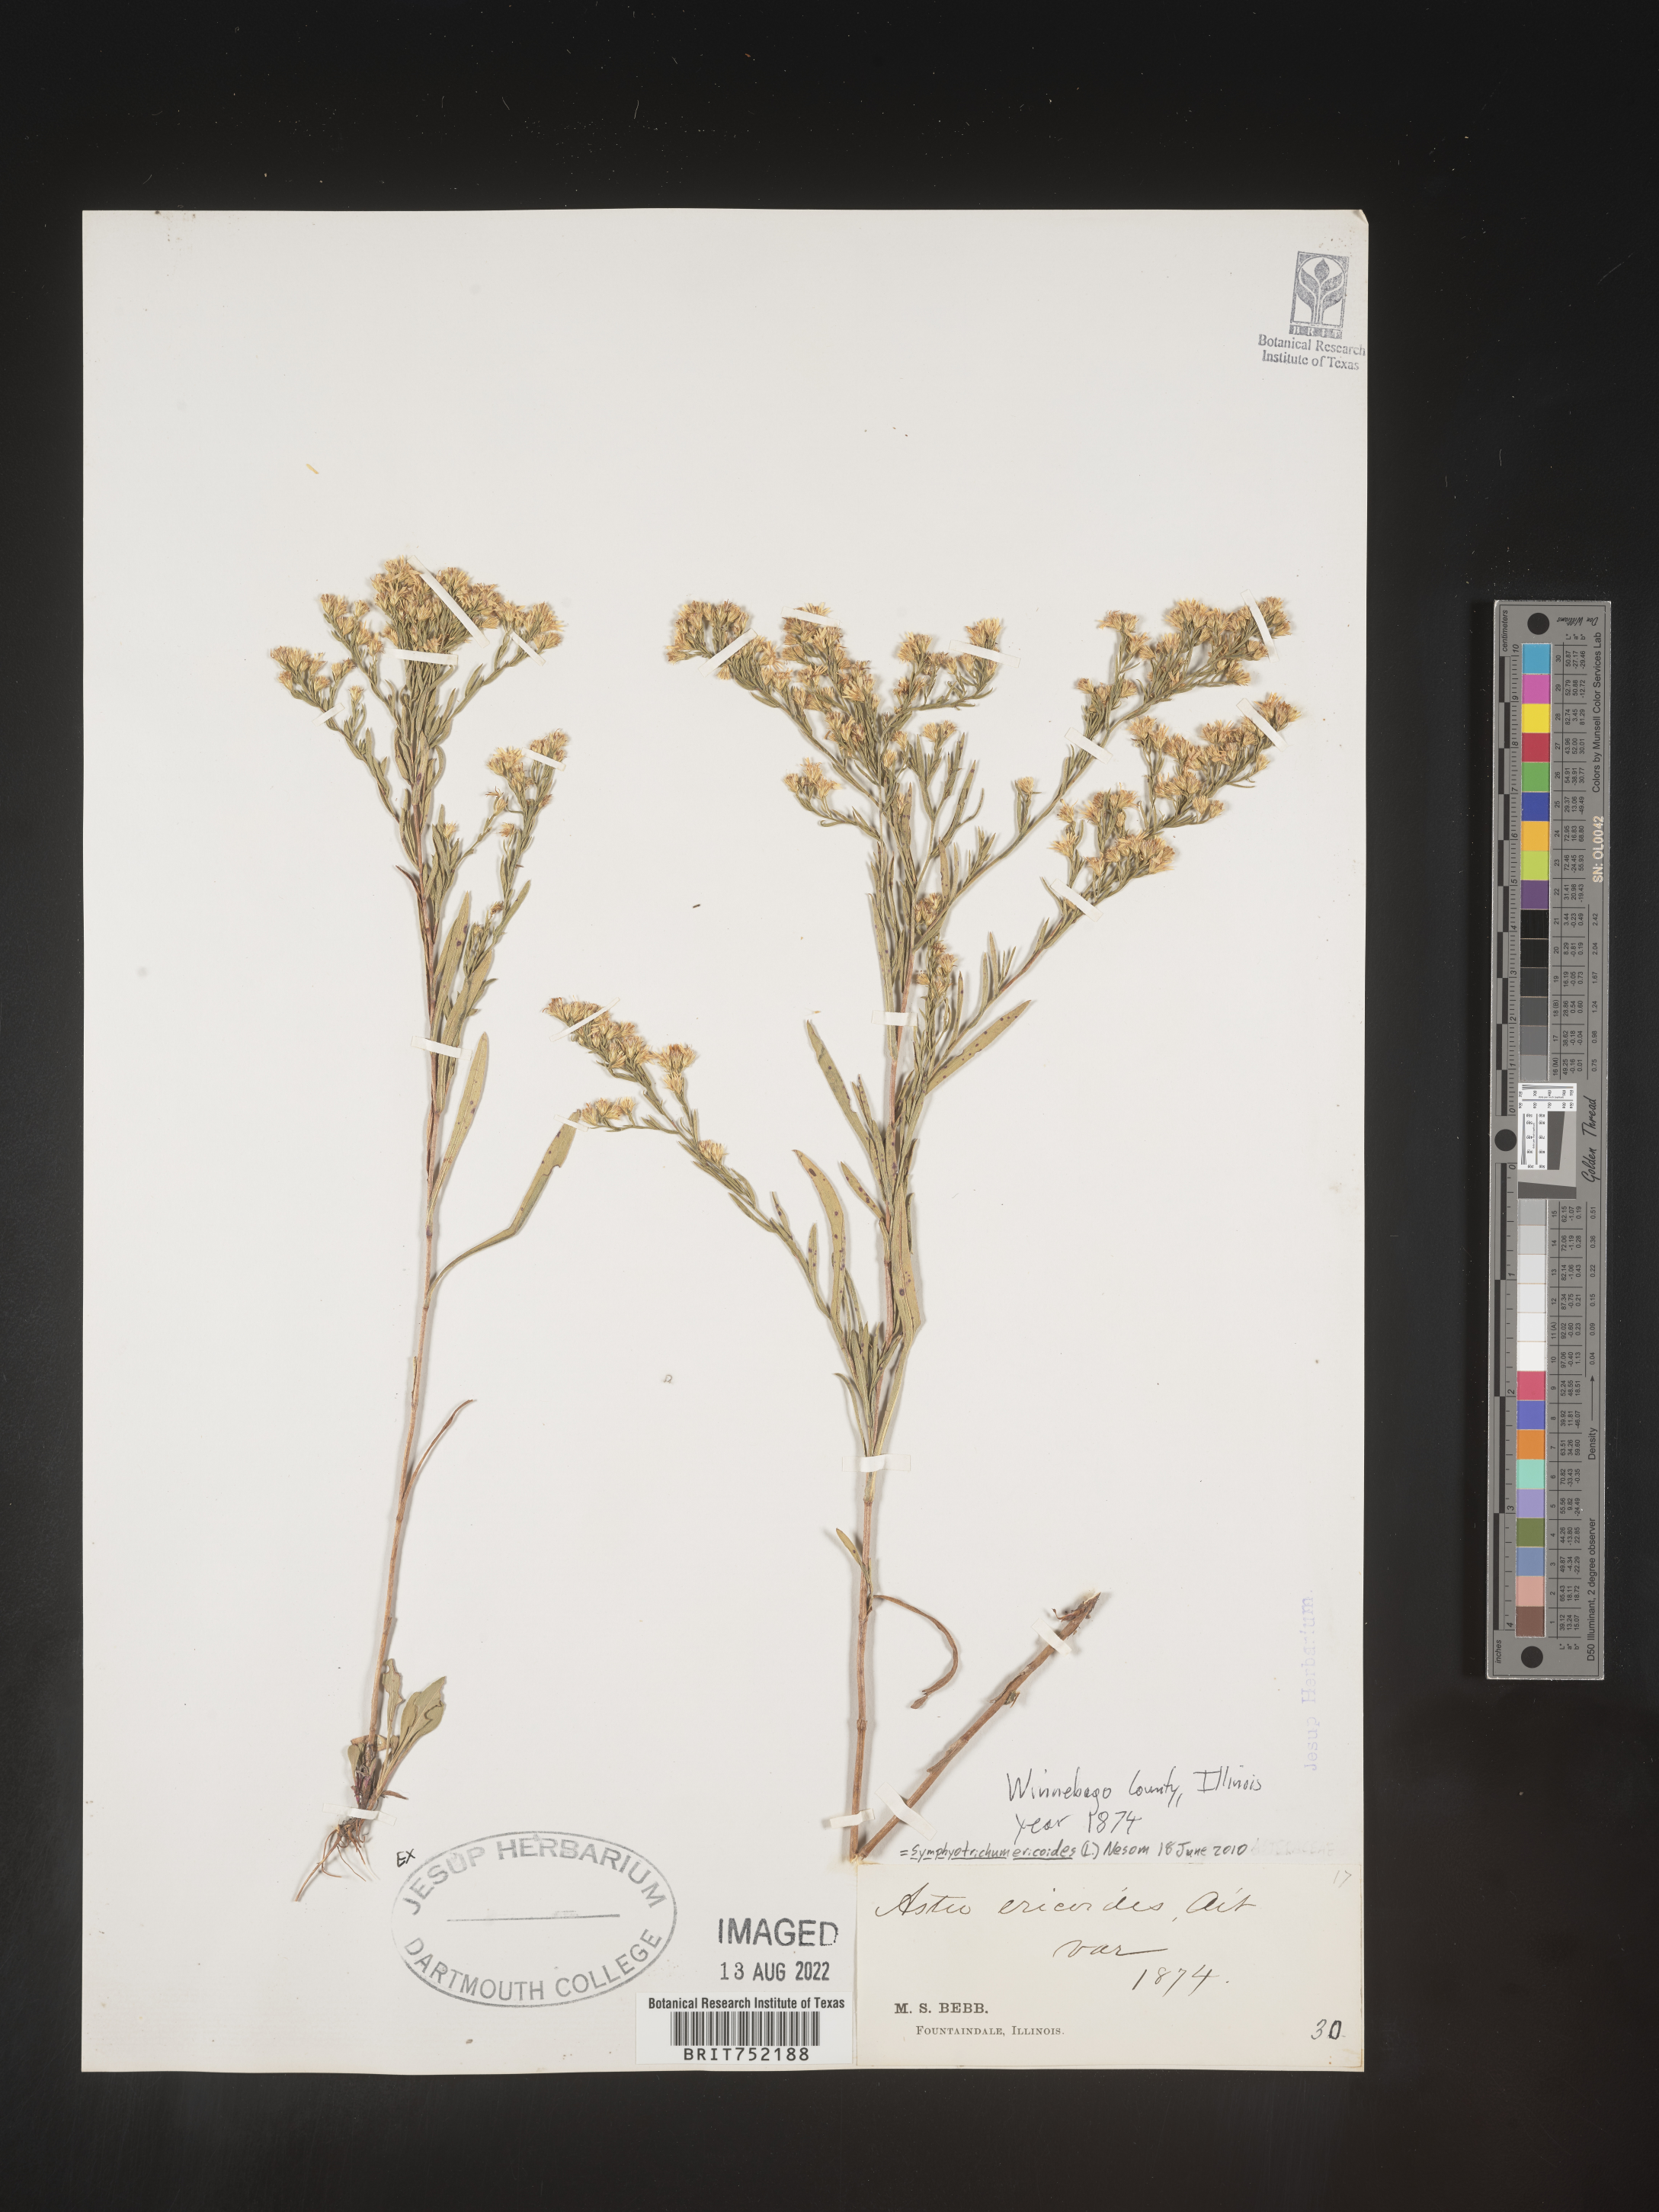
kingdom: Plantae
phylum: Tracheophyta
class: Magnoliopsida
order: Asterales
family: Asteraceae
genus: Symphyotrichum
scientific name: Symphyotrichum ericoides
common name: Heath aster
